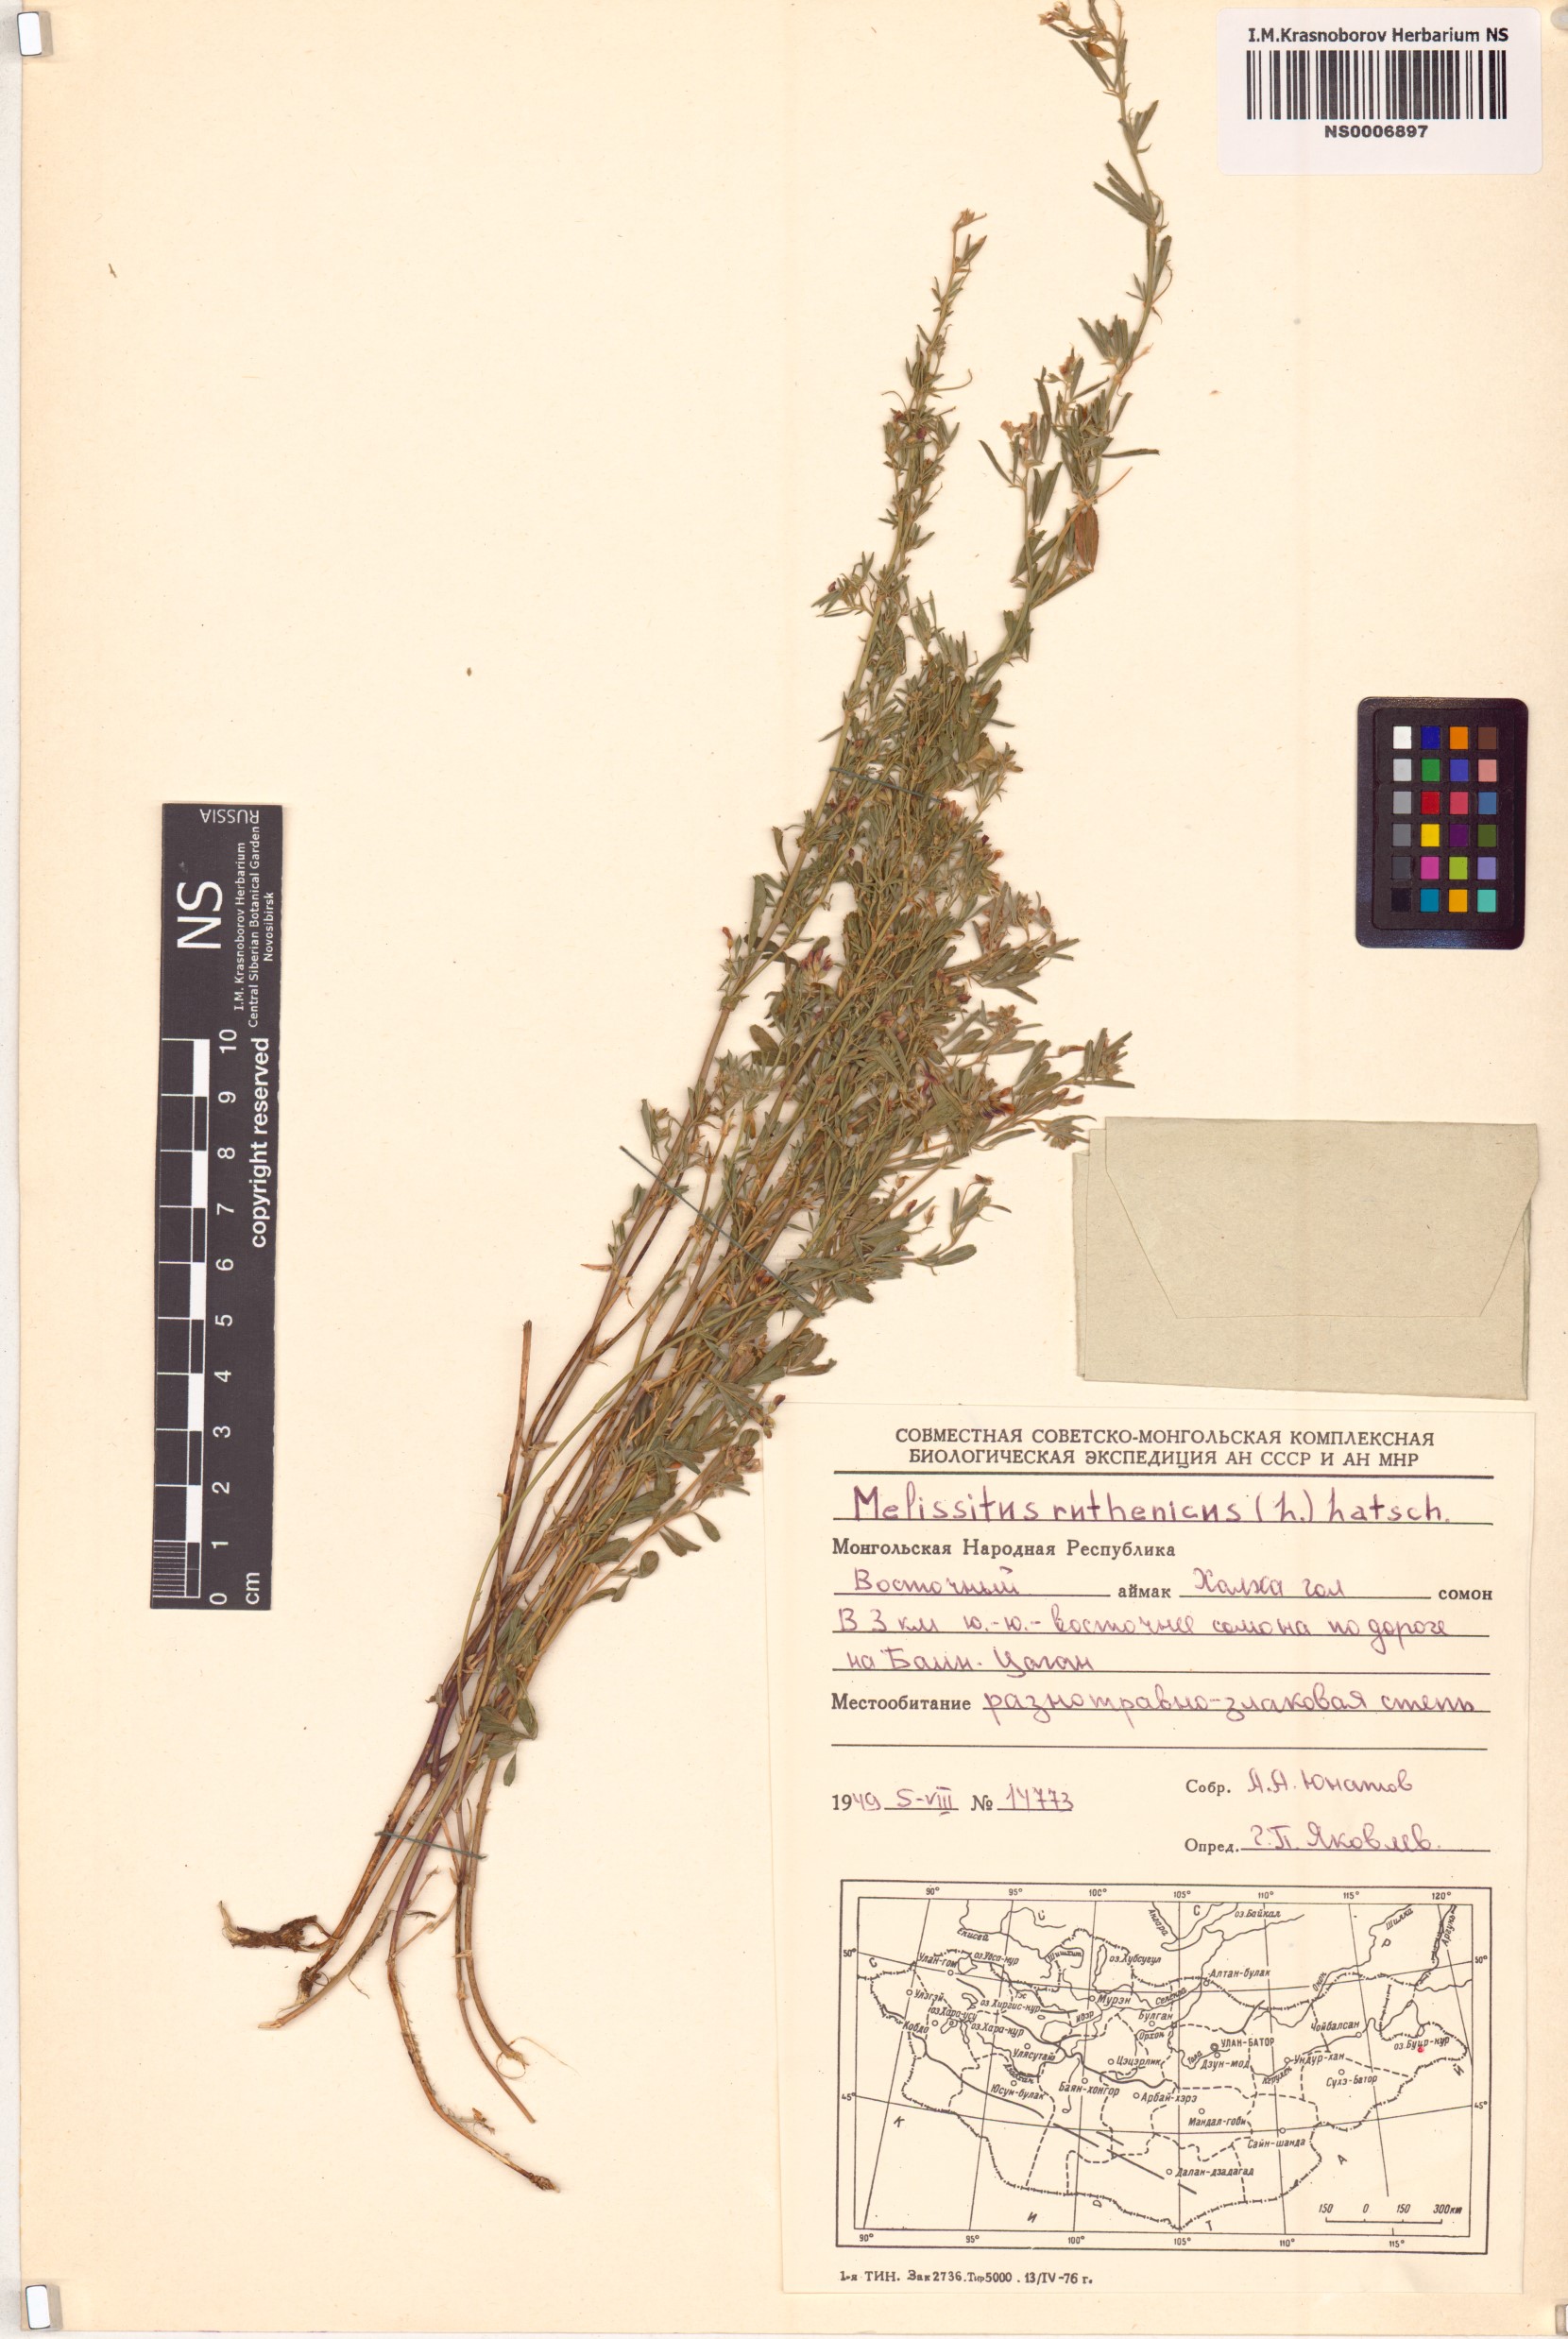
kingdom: Plantae
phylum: Tracheophyta
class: Magnoliopsida
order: Fabales
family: Fabaceae
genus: Medicago
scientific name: Medicago ruthenica
